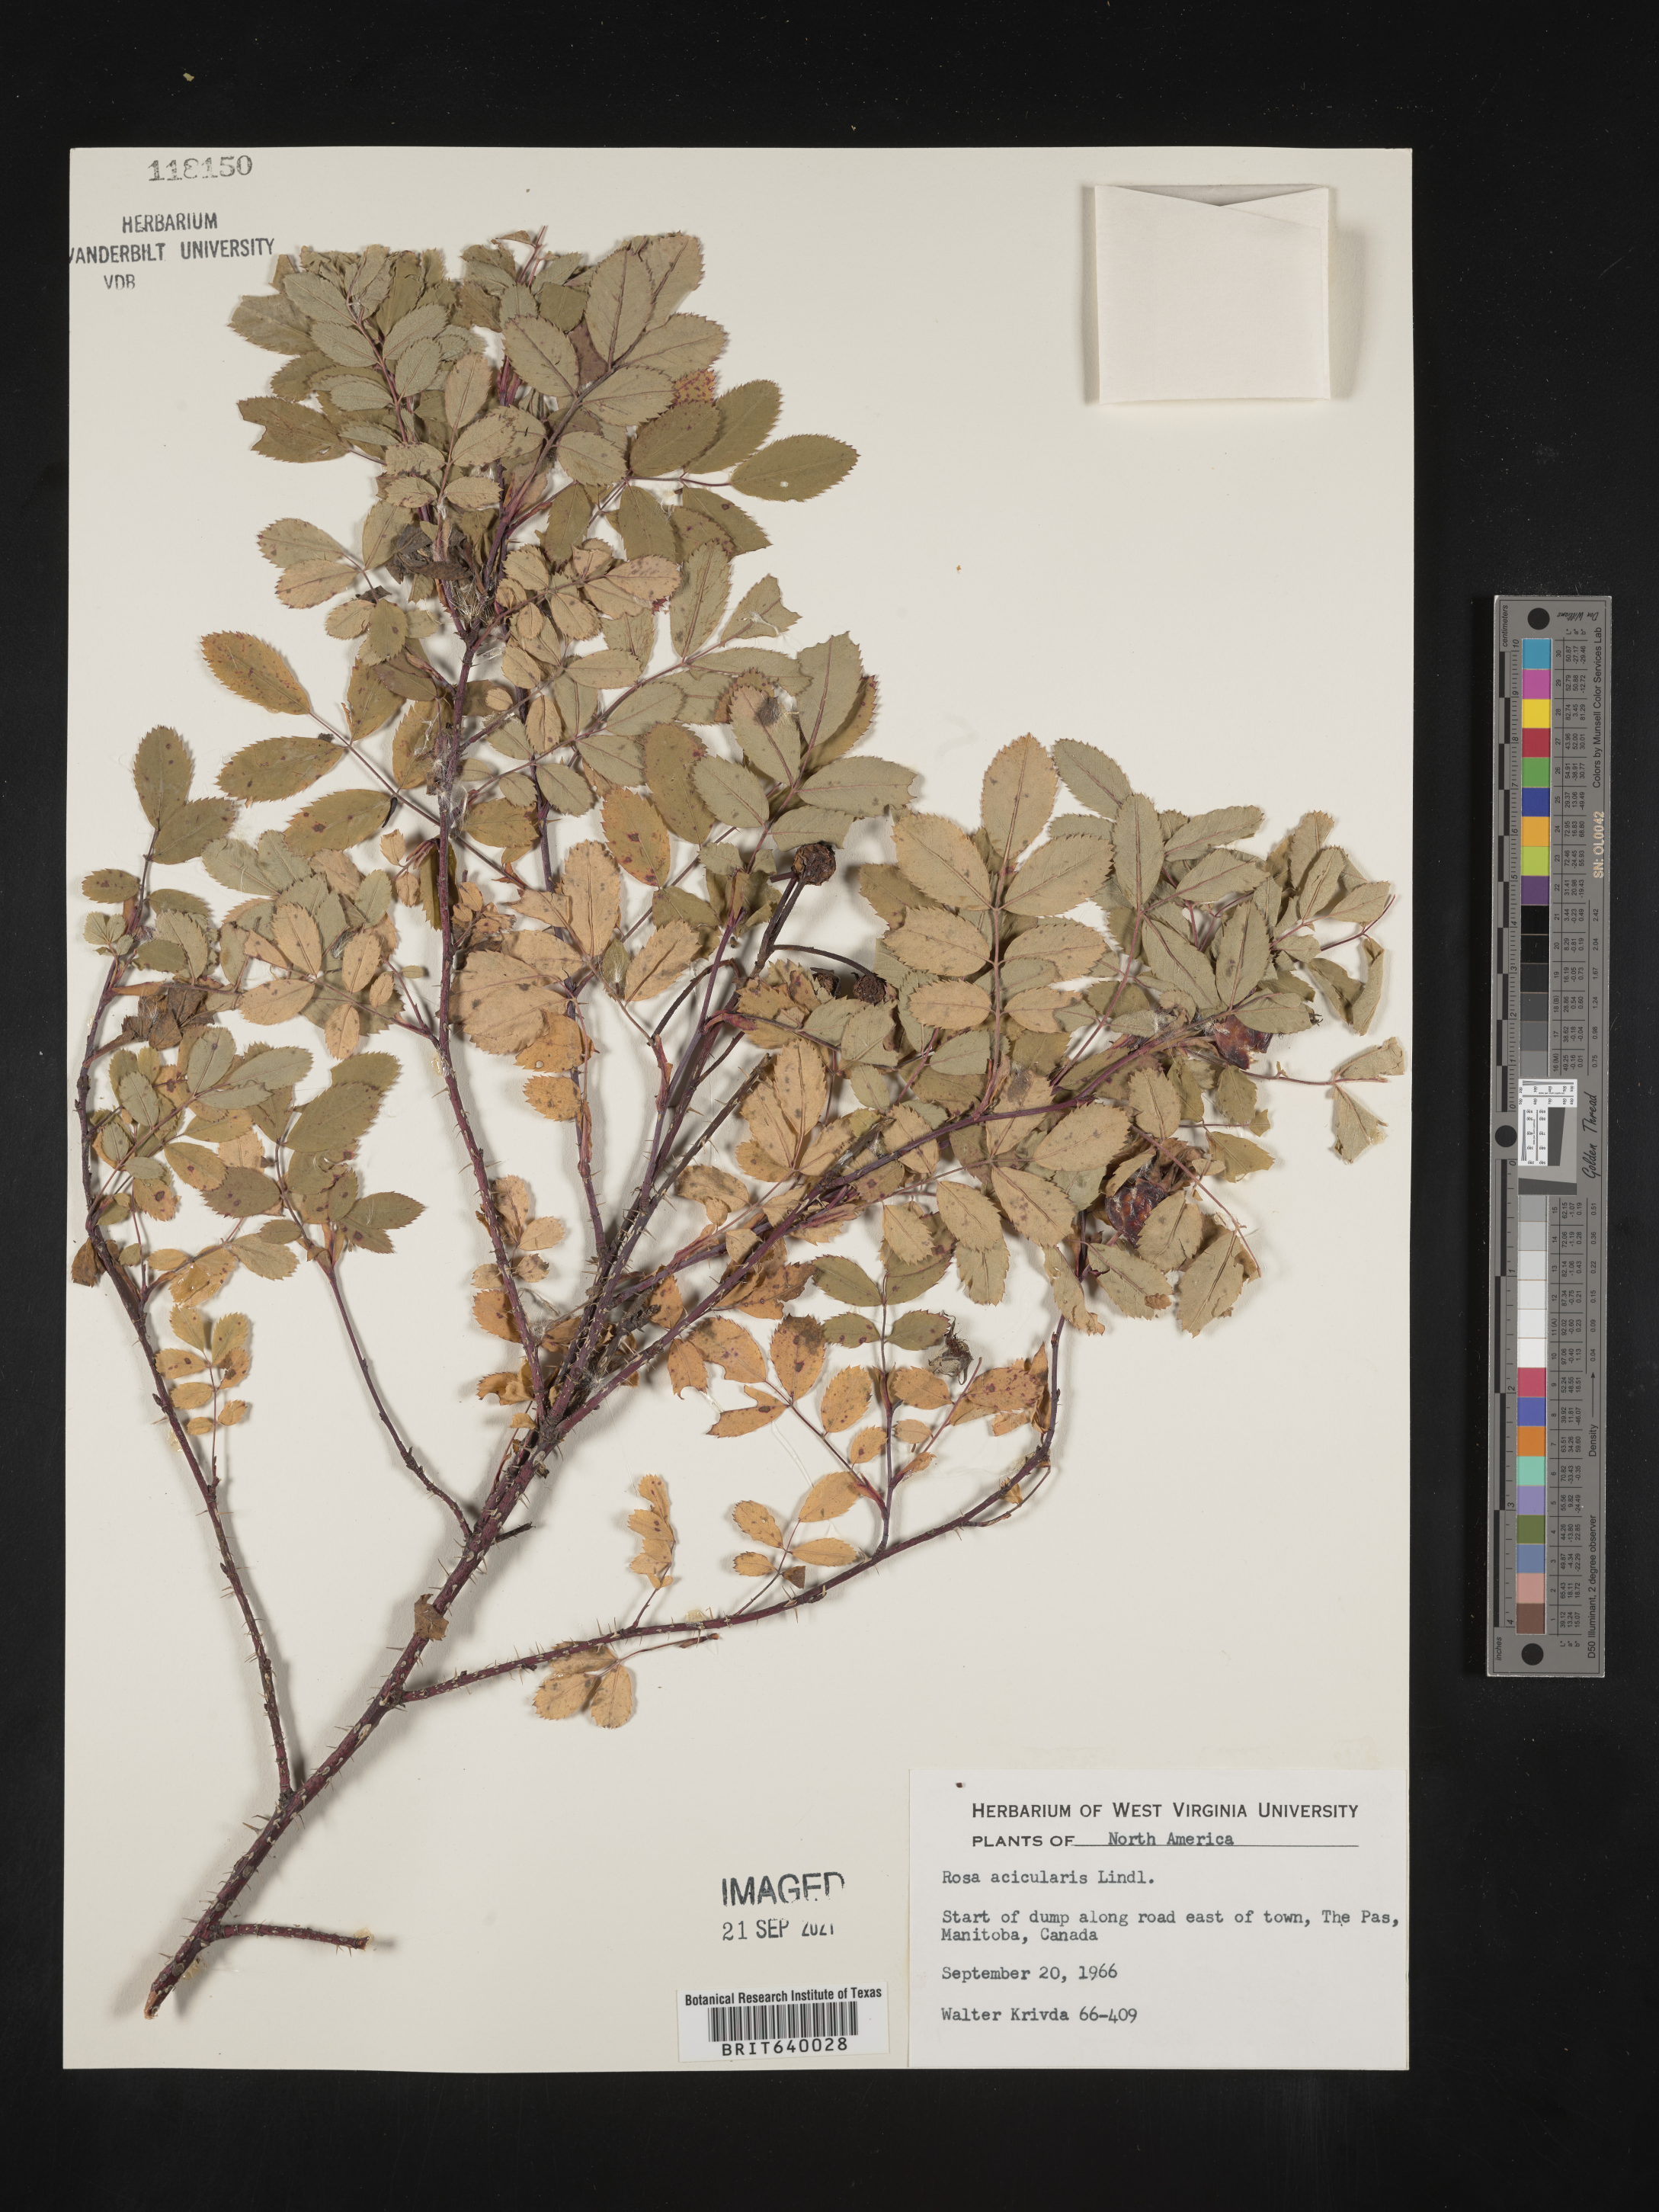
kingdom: Plantae
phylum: Tracheophyta
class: Magnoliopsida
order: Rosales
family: Rosaceae
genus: Rosa
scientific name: Rosa
